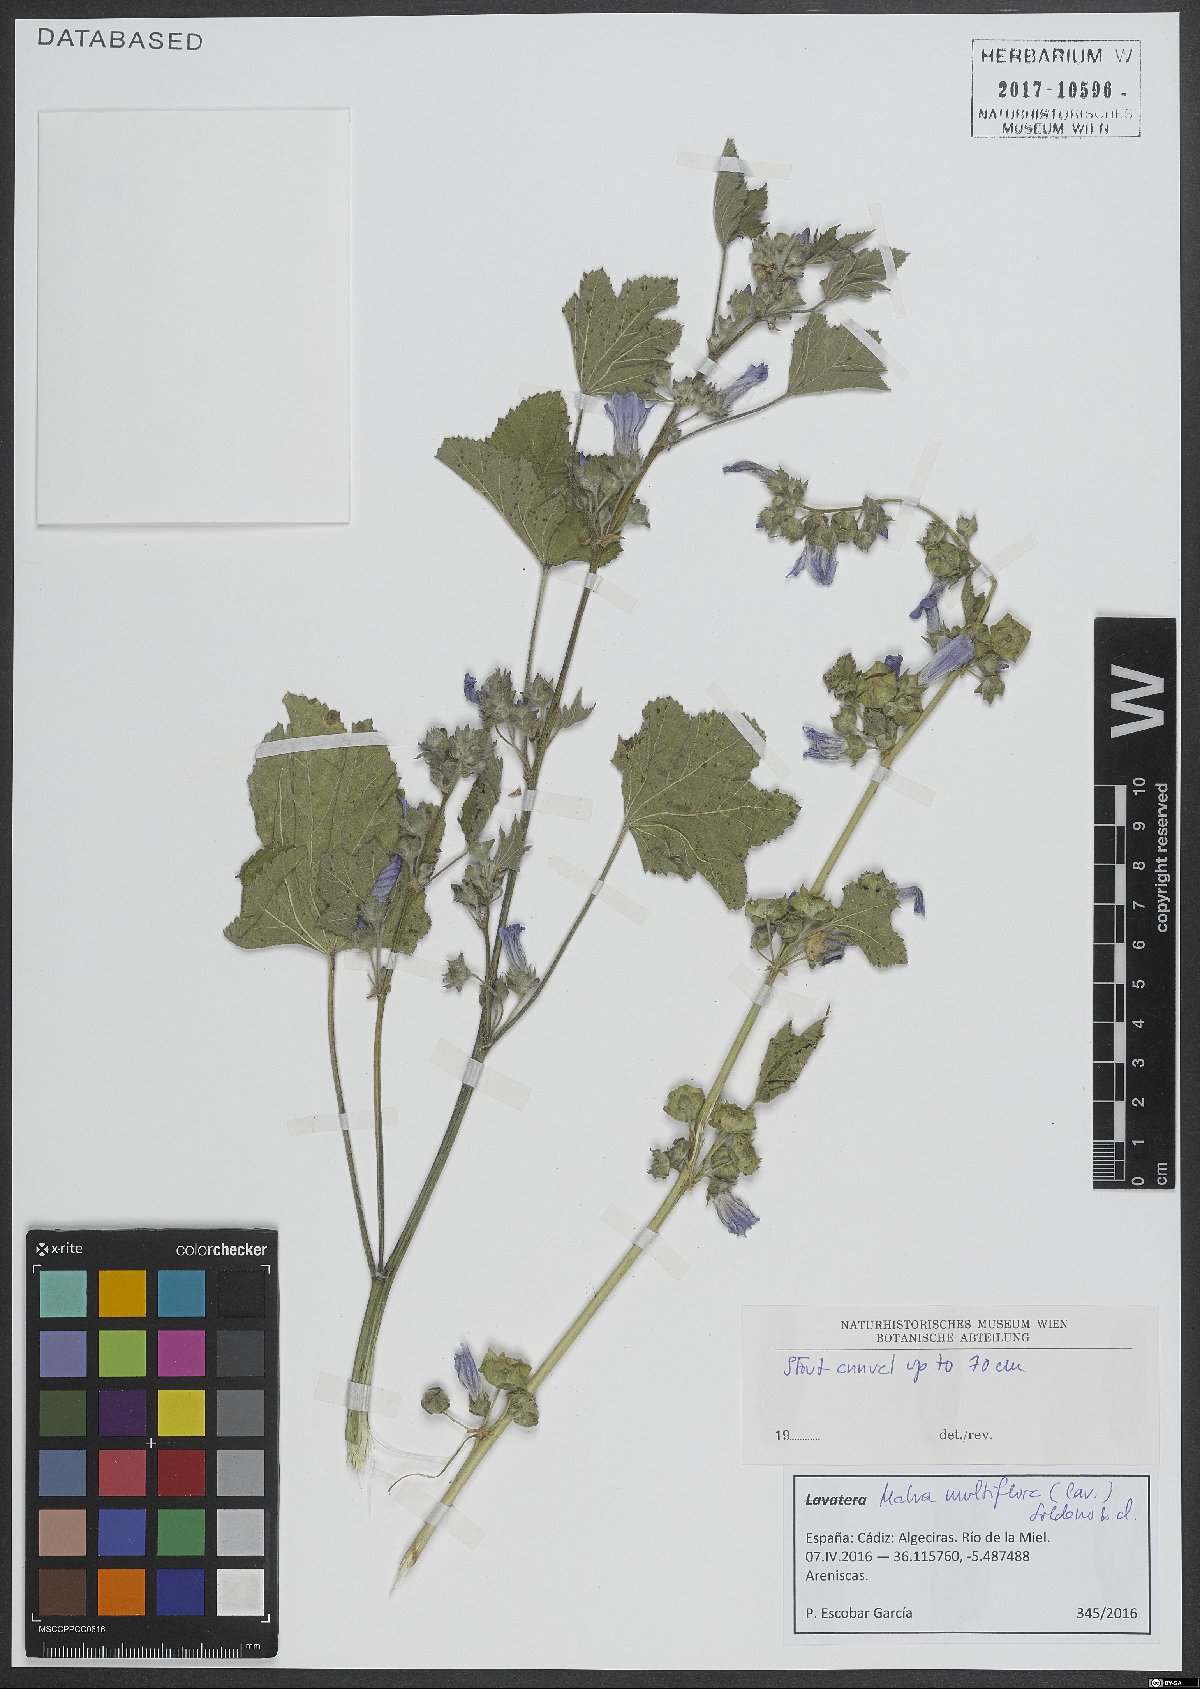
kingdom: Plantae
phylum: Tracheophyta
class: Magnoliopsida
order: Malvales
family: Malvaceae
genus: Malva
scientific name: Malva multiflora
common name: Cheeseweed
